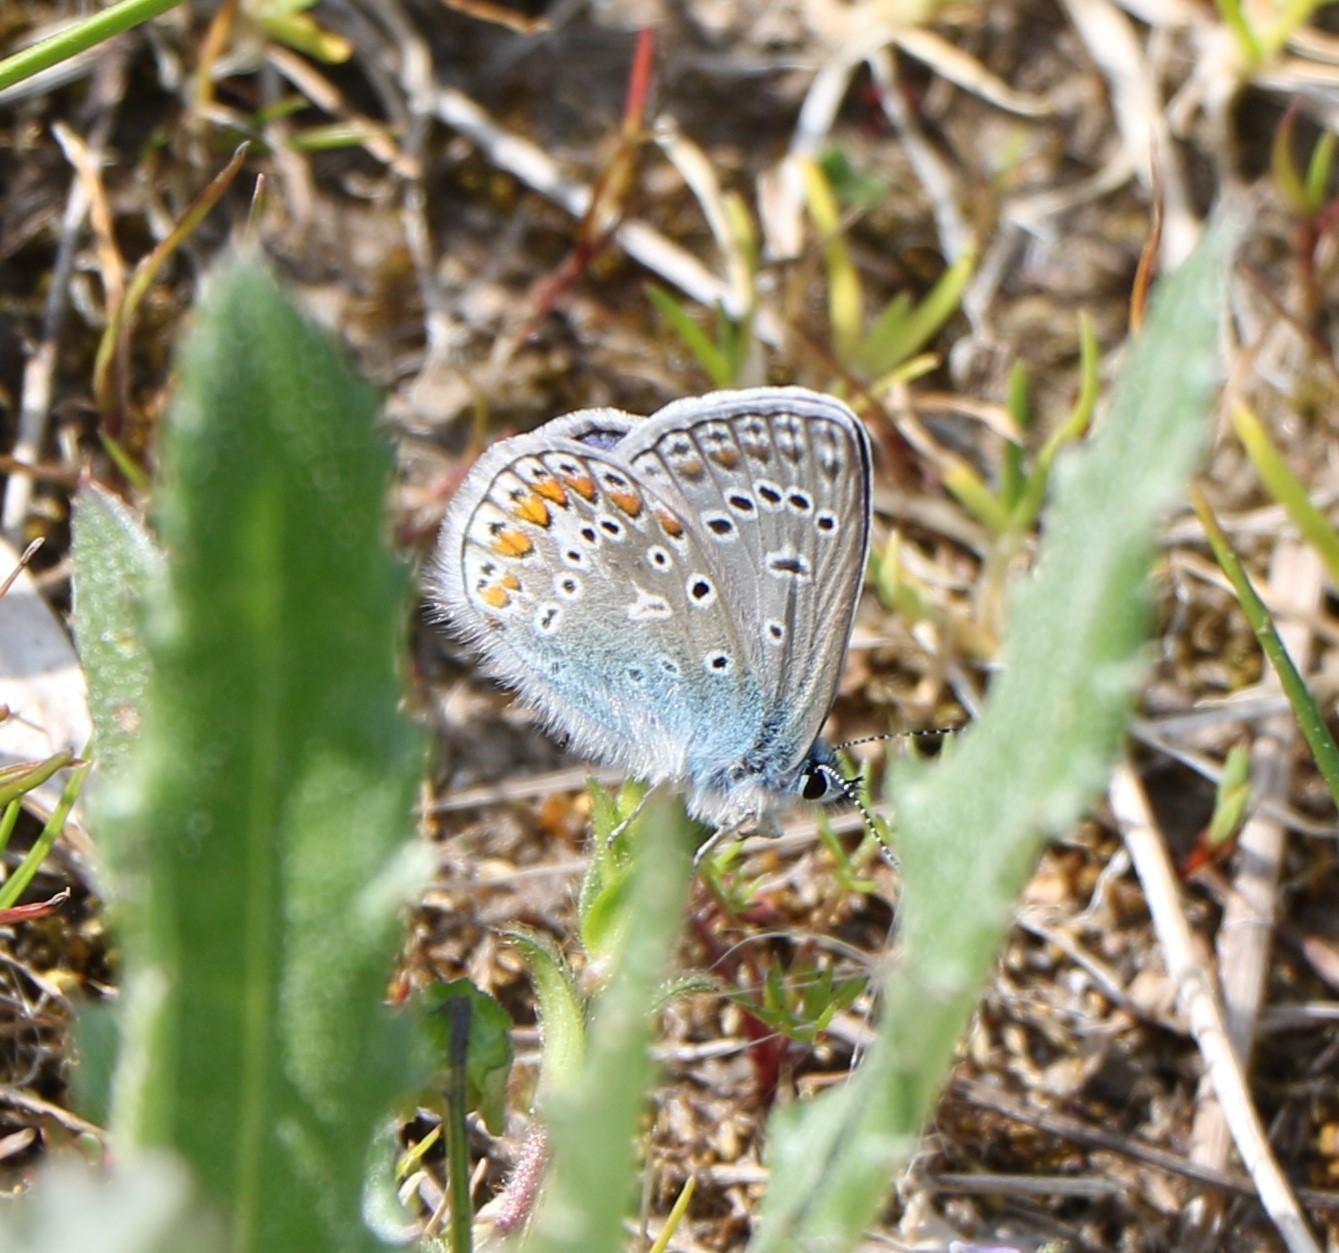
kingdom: Animalia
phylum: Arthropoda
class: Insecta
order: Lepidoptera
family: Lycaenidae
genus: Polyommatus
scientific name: Polyommatus icarus
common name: Almindelig blåfugl
